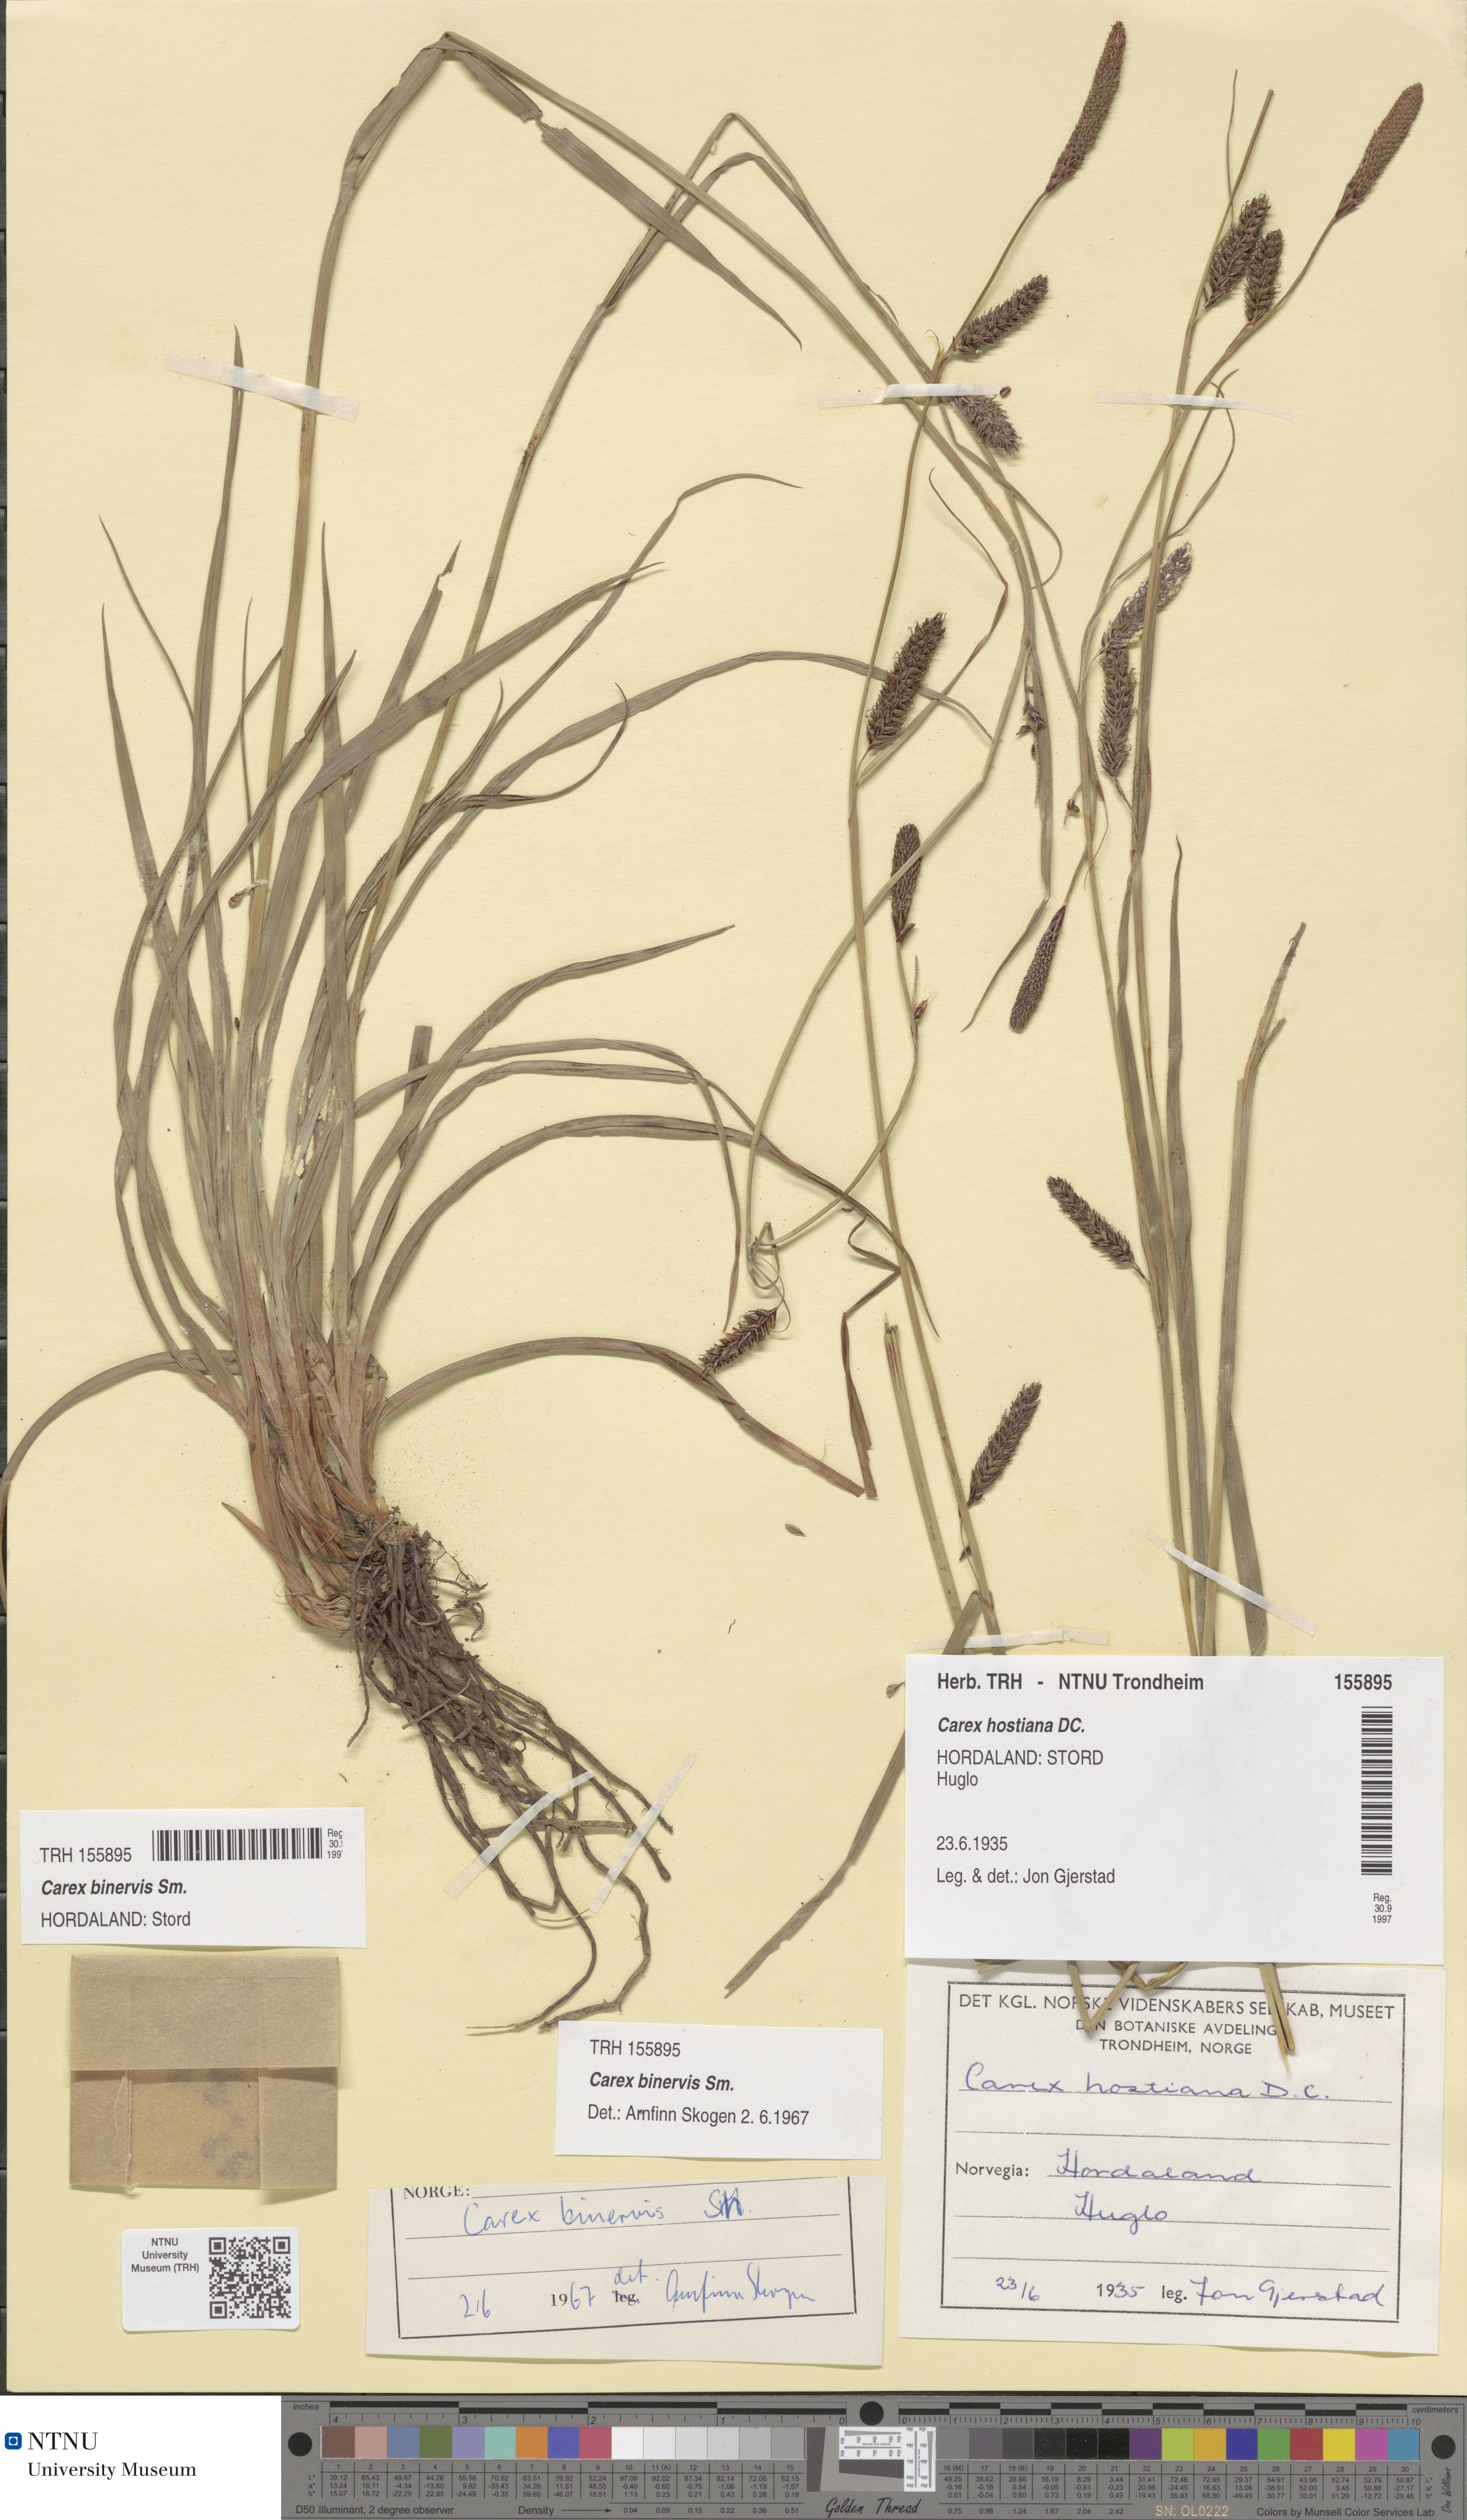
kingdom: Plantae
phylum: Tracheophyta
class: Liliopsida
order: Poales
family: Cyperaceae
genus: Carex
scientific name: Carex binervis
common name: Green-ribbed sedge
